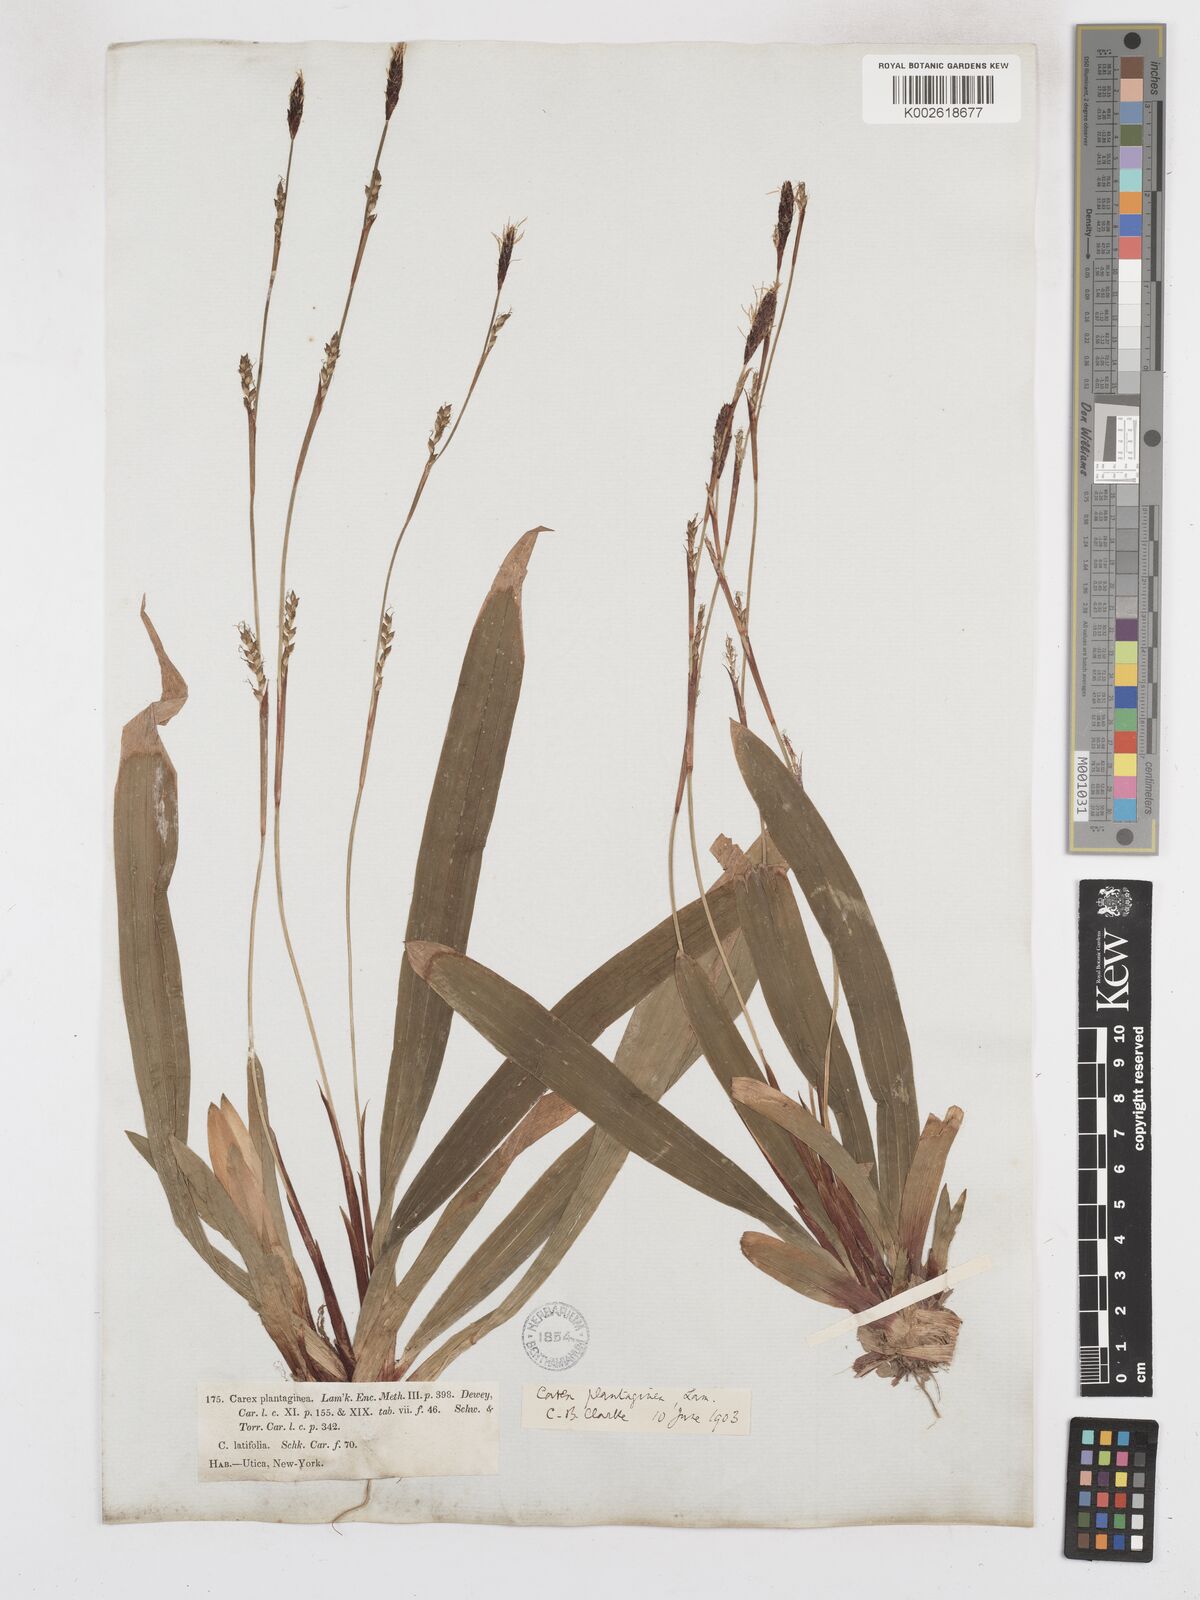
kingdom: Plantae
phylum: Tracheophyta
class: Liliopsida
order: Poales
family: Cyperaceae
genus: Carex
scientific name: Carex plantaginea
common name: Plantain-leaved sedge
